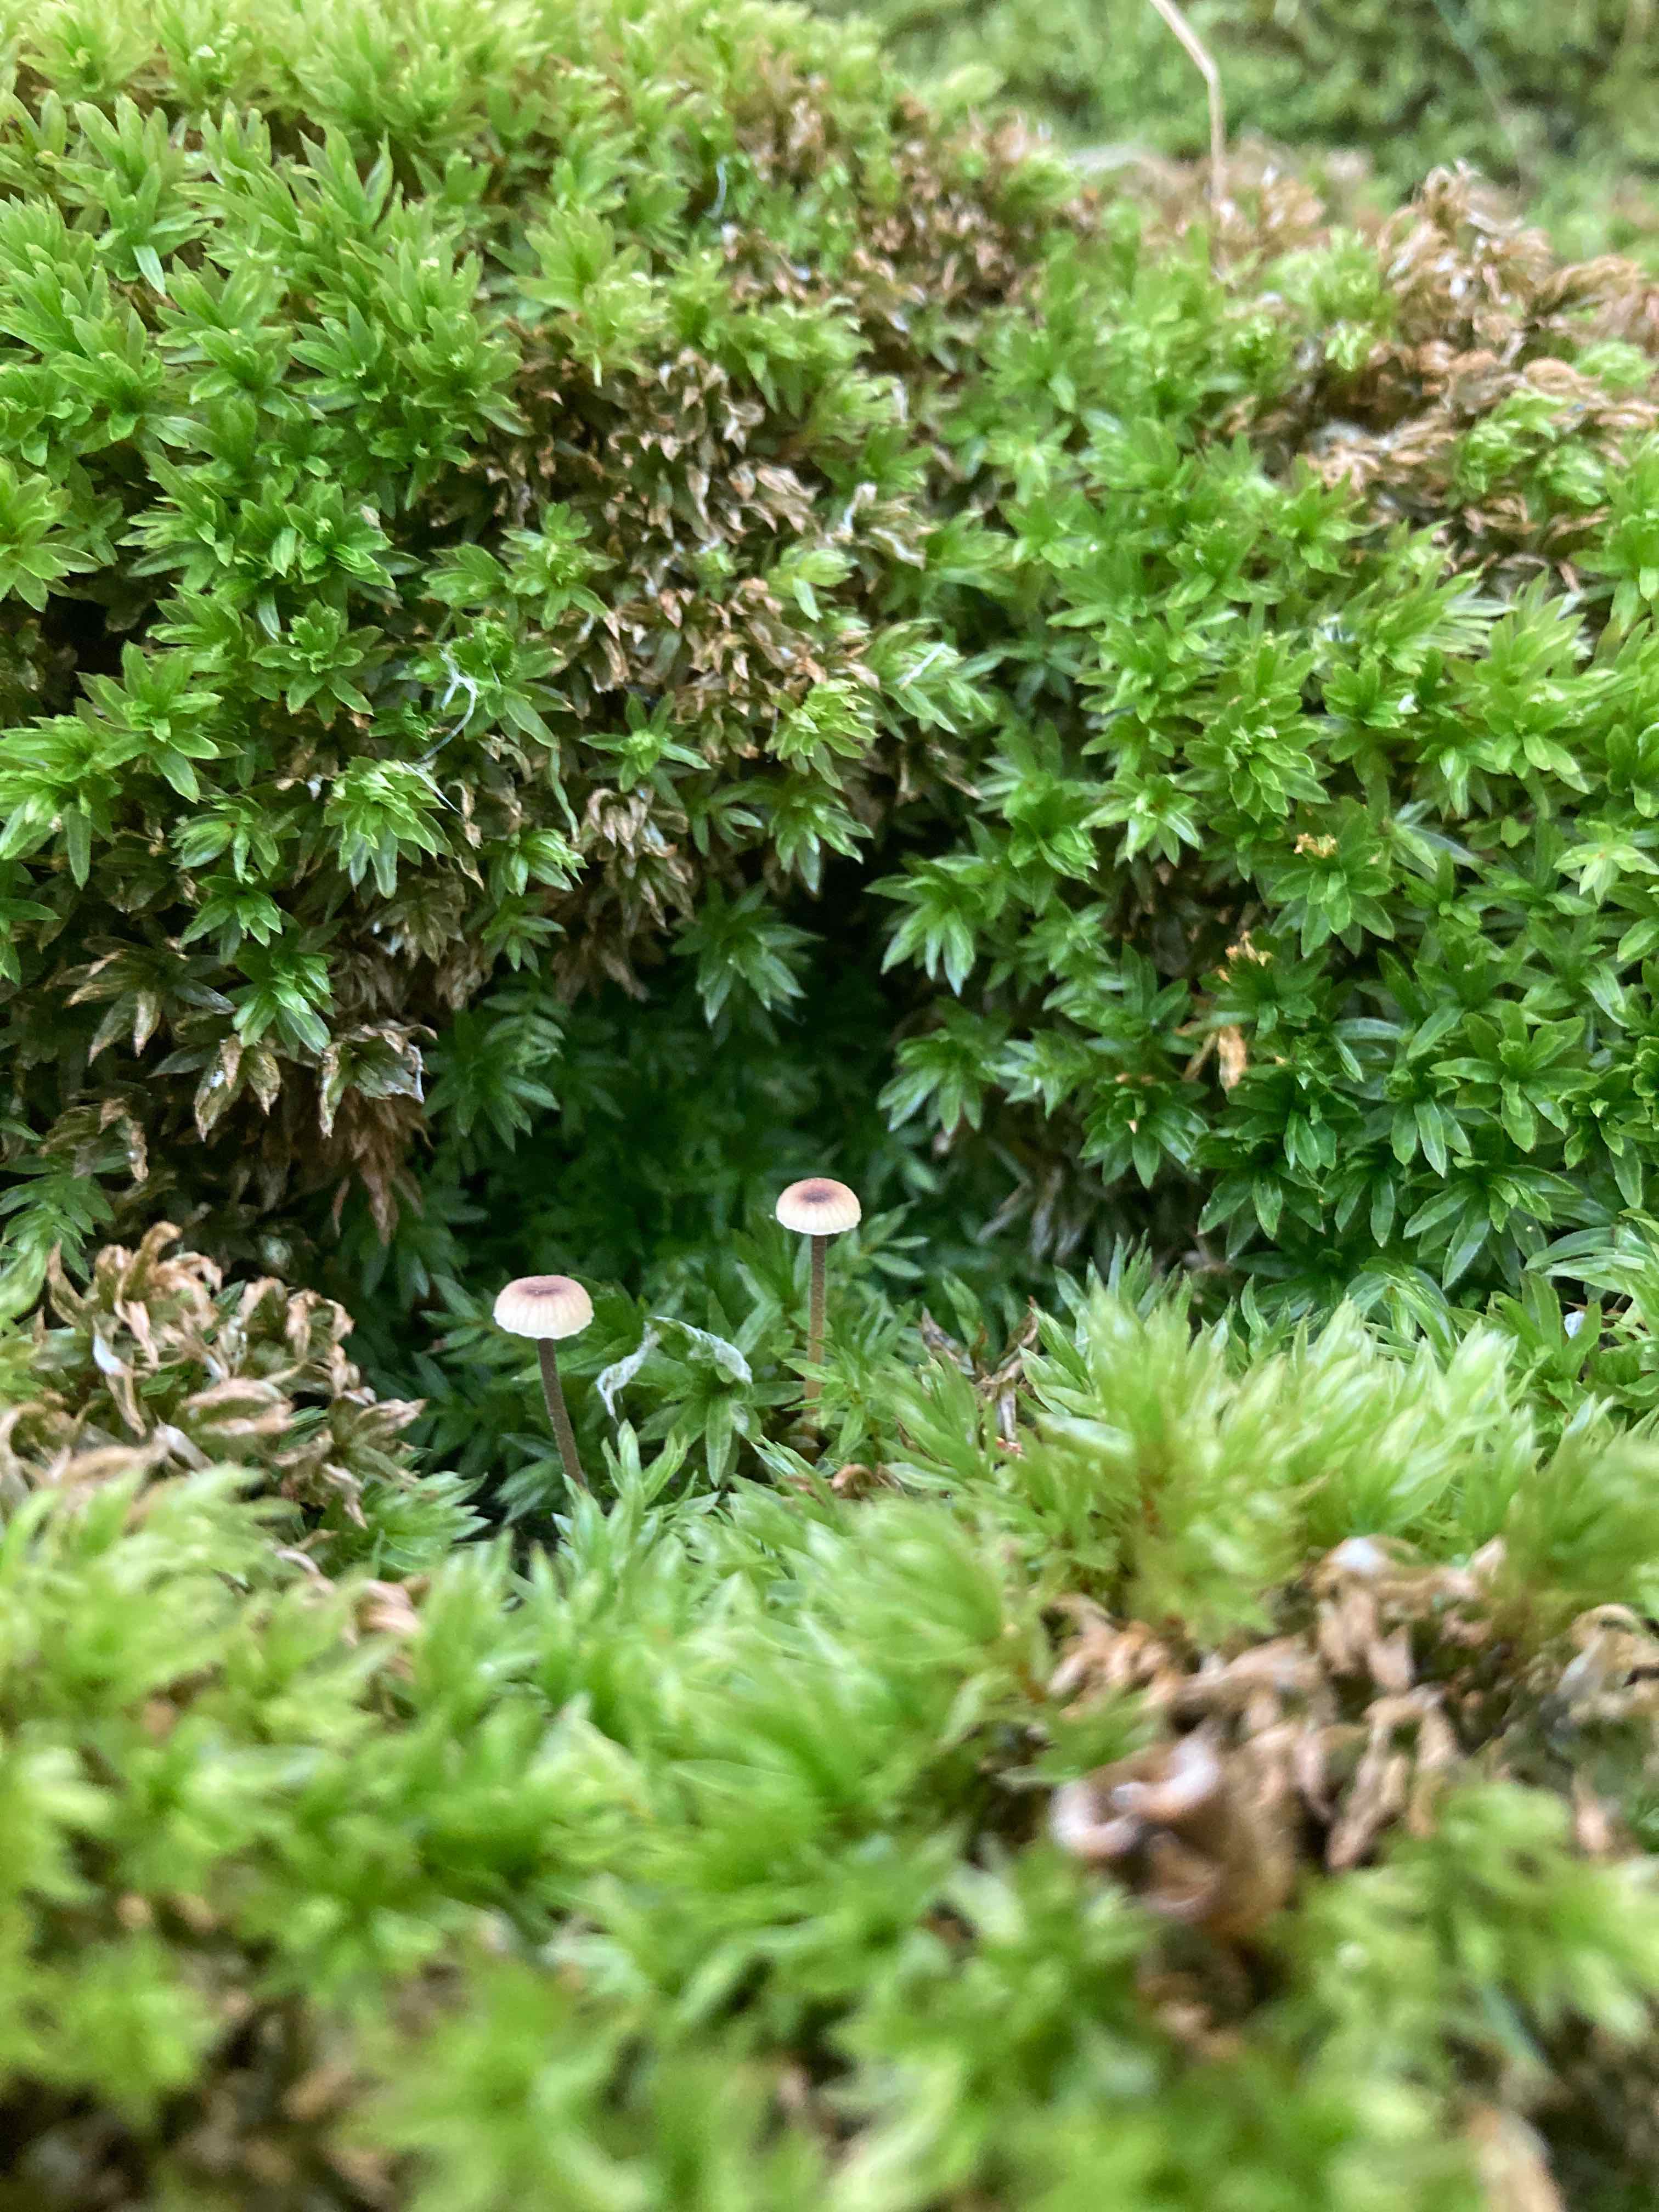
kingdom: Fungi
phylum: Basidiomycota
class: Agaricomycetes
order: Hymenochaetales
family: Rickenellaceae
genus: Rickenella
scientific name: Rickenella swartzii
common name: finstokket mosnavlehat
